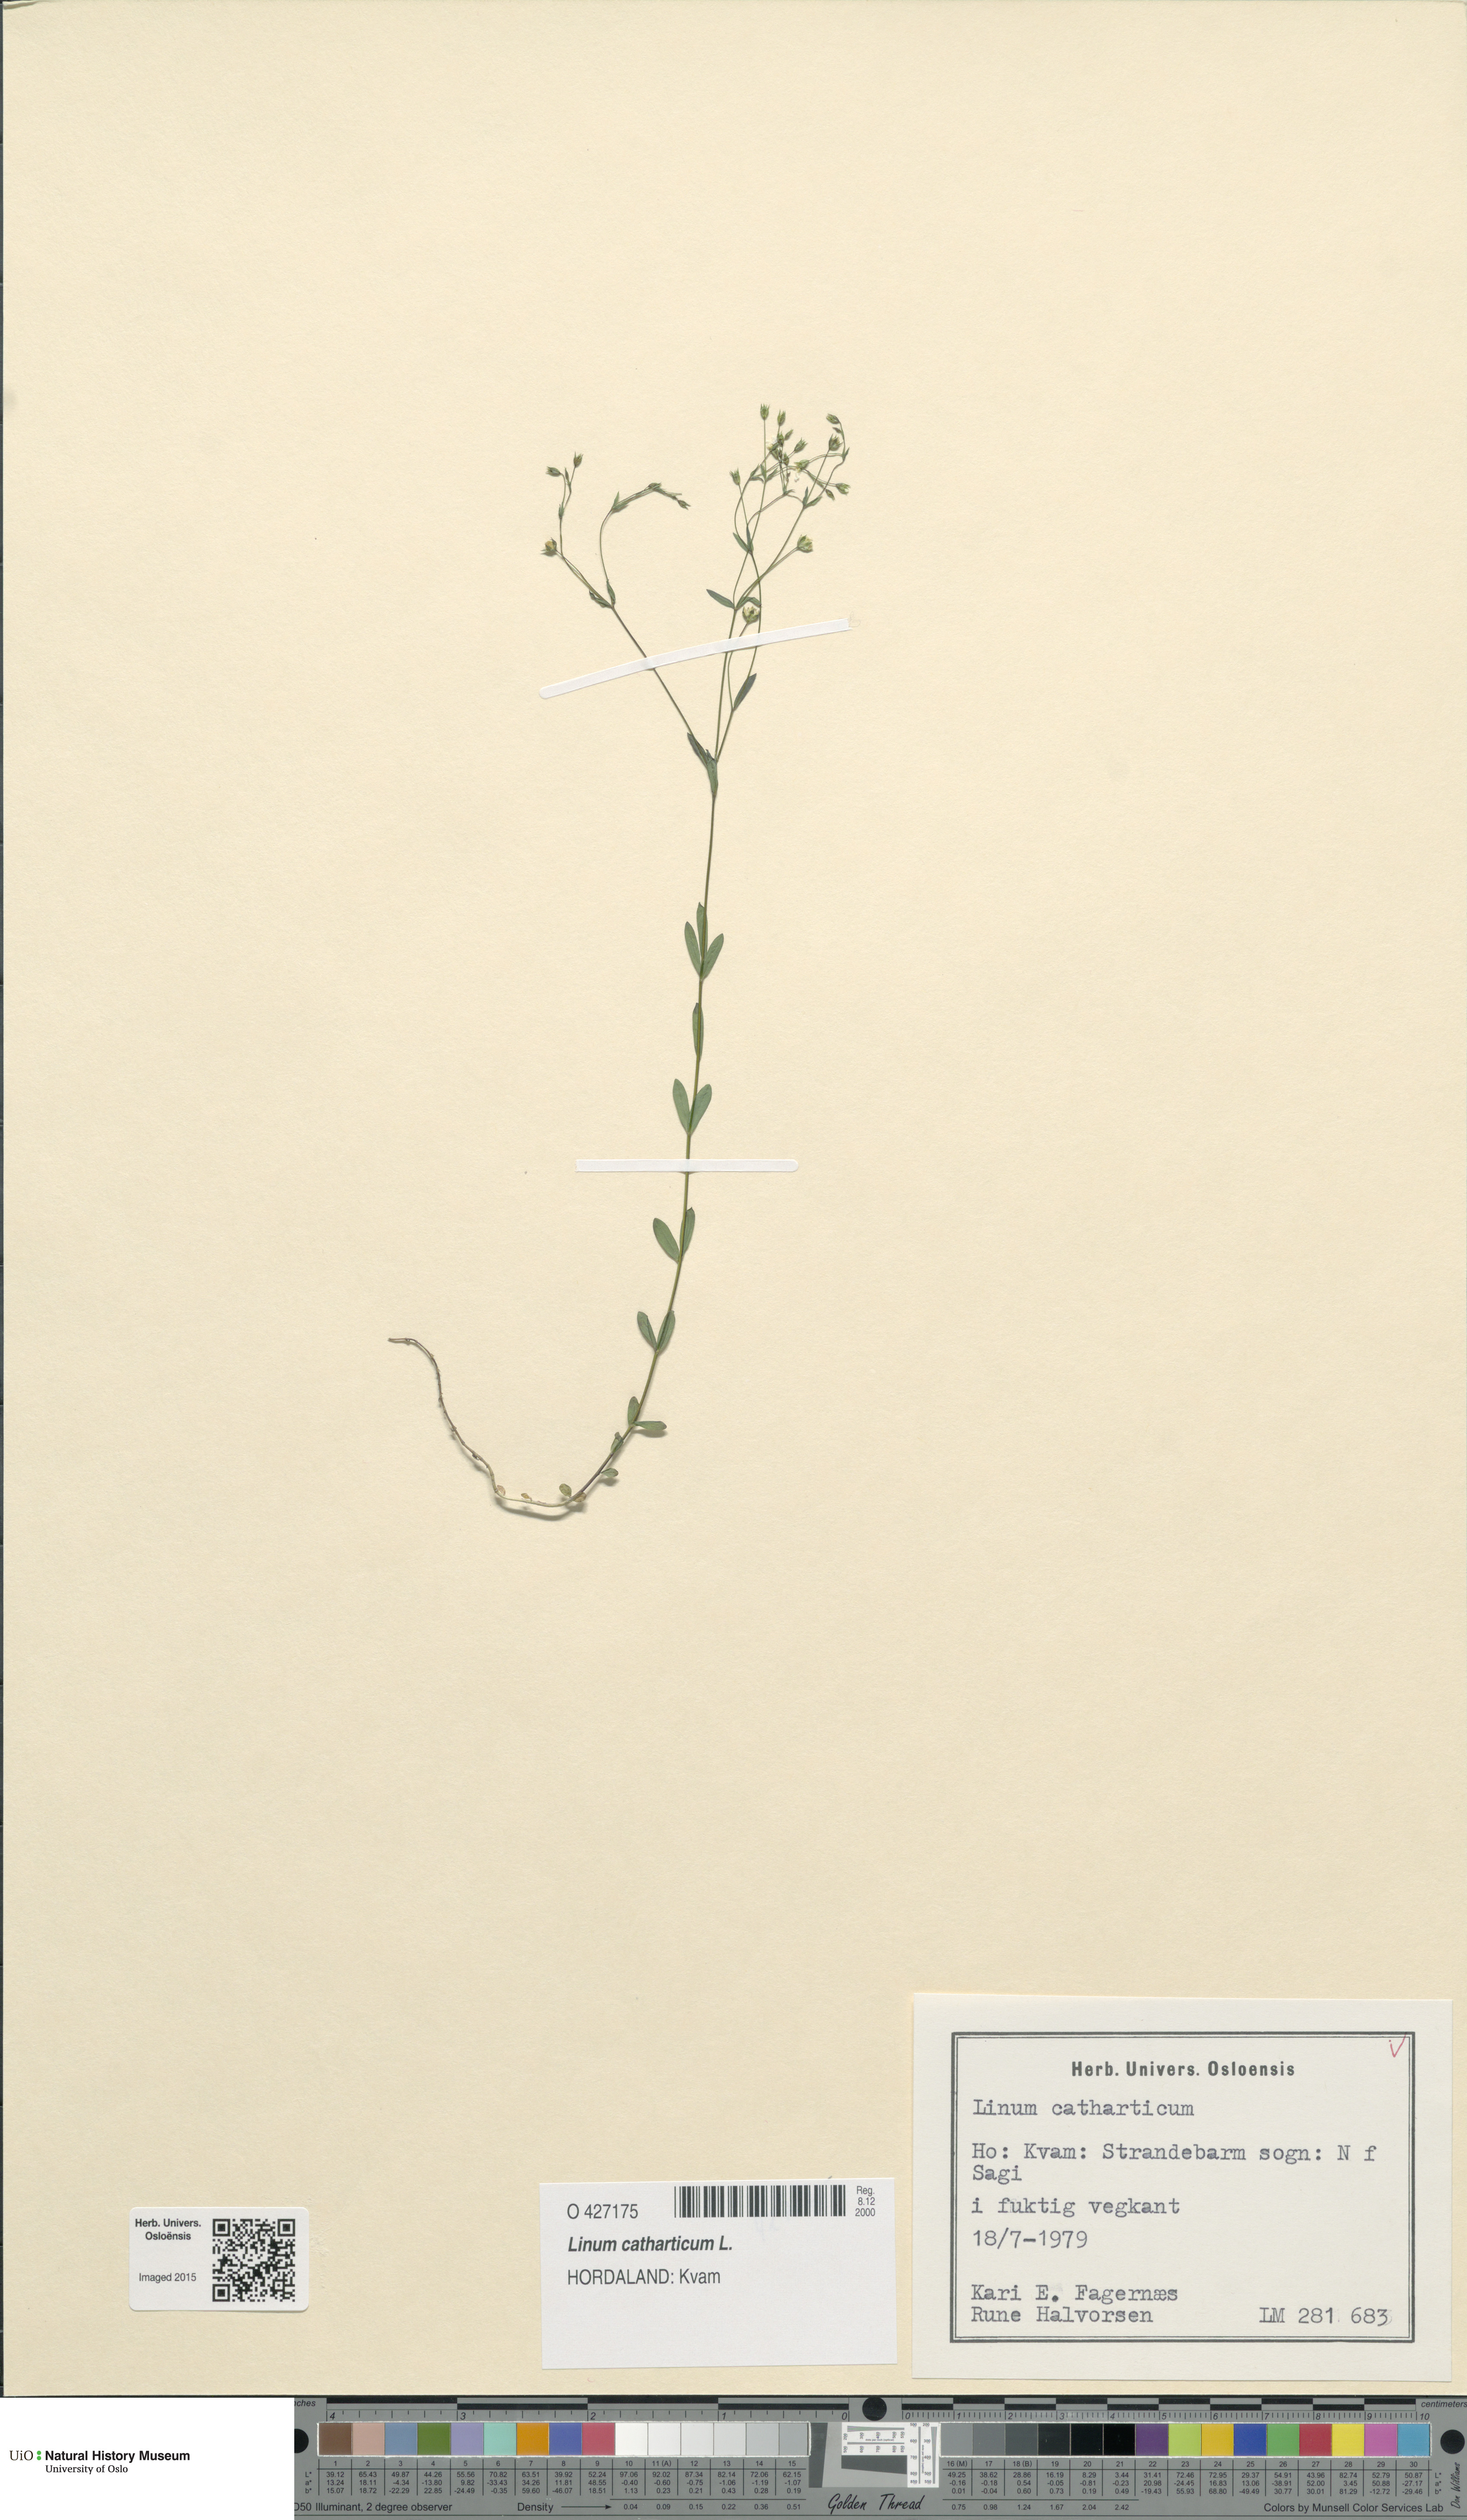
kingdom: Plantae
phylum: Tracheophyta
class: Magnoliopsida
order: Malpighiales
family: Linaceae
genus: Linum
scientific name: Linum catharticum
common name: Fairy flax
